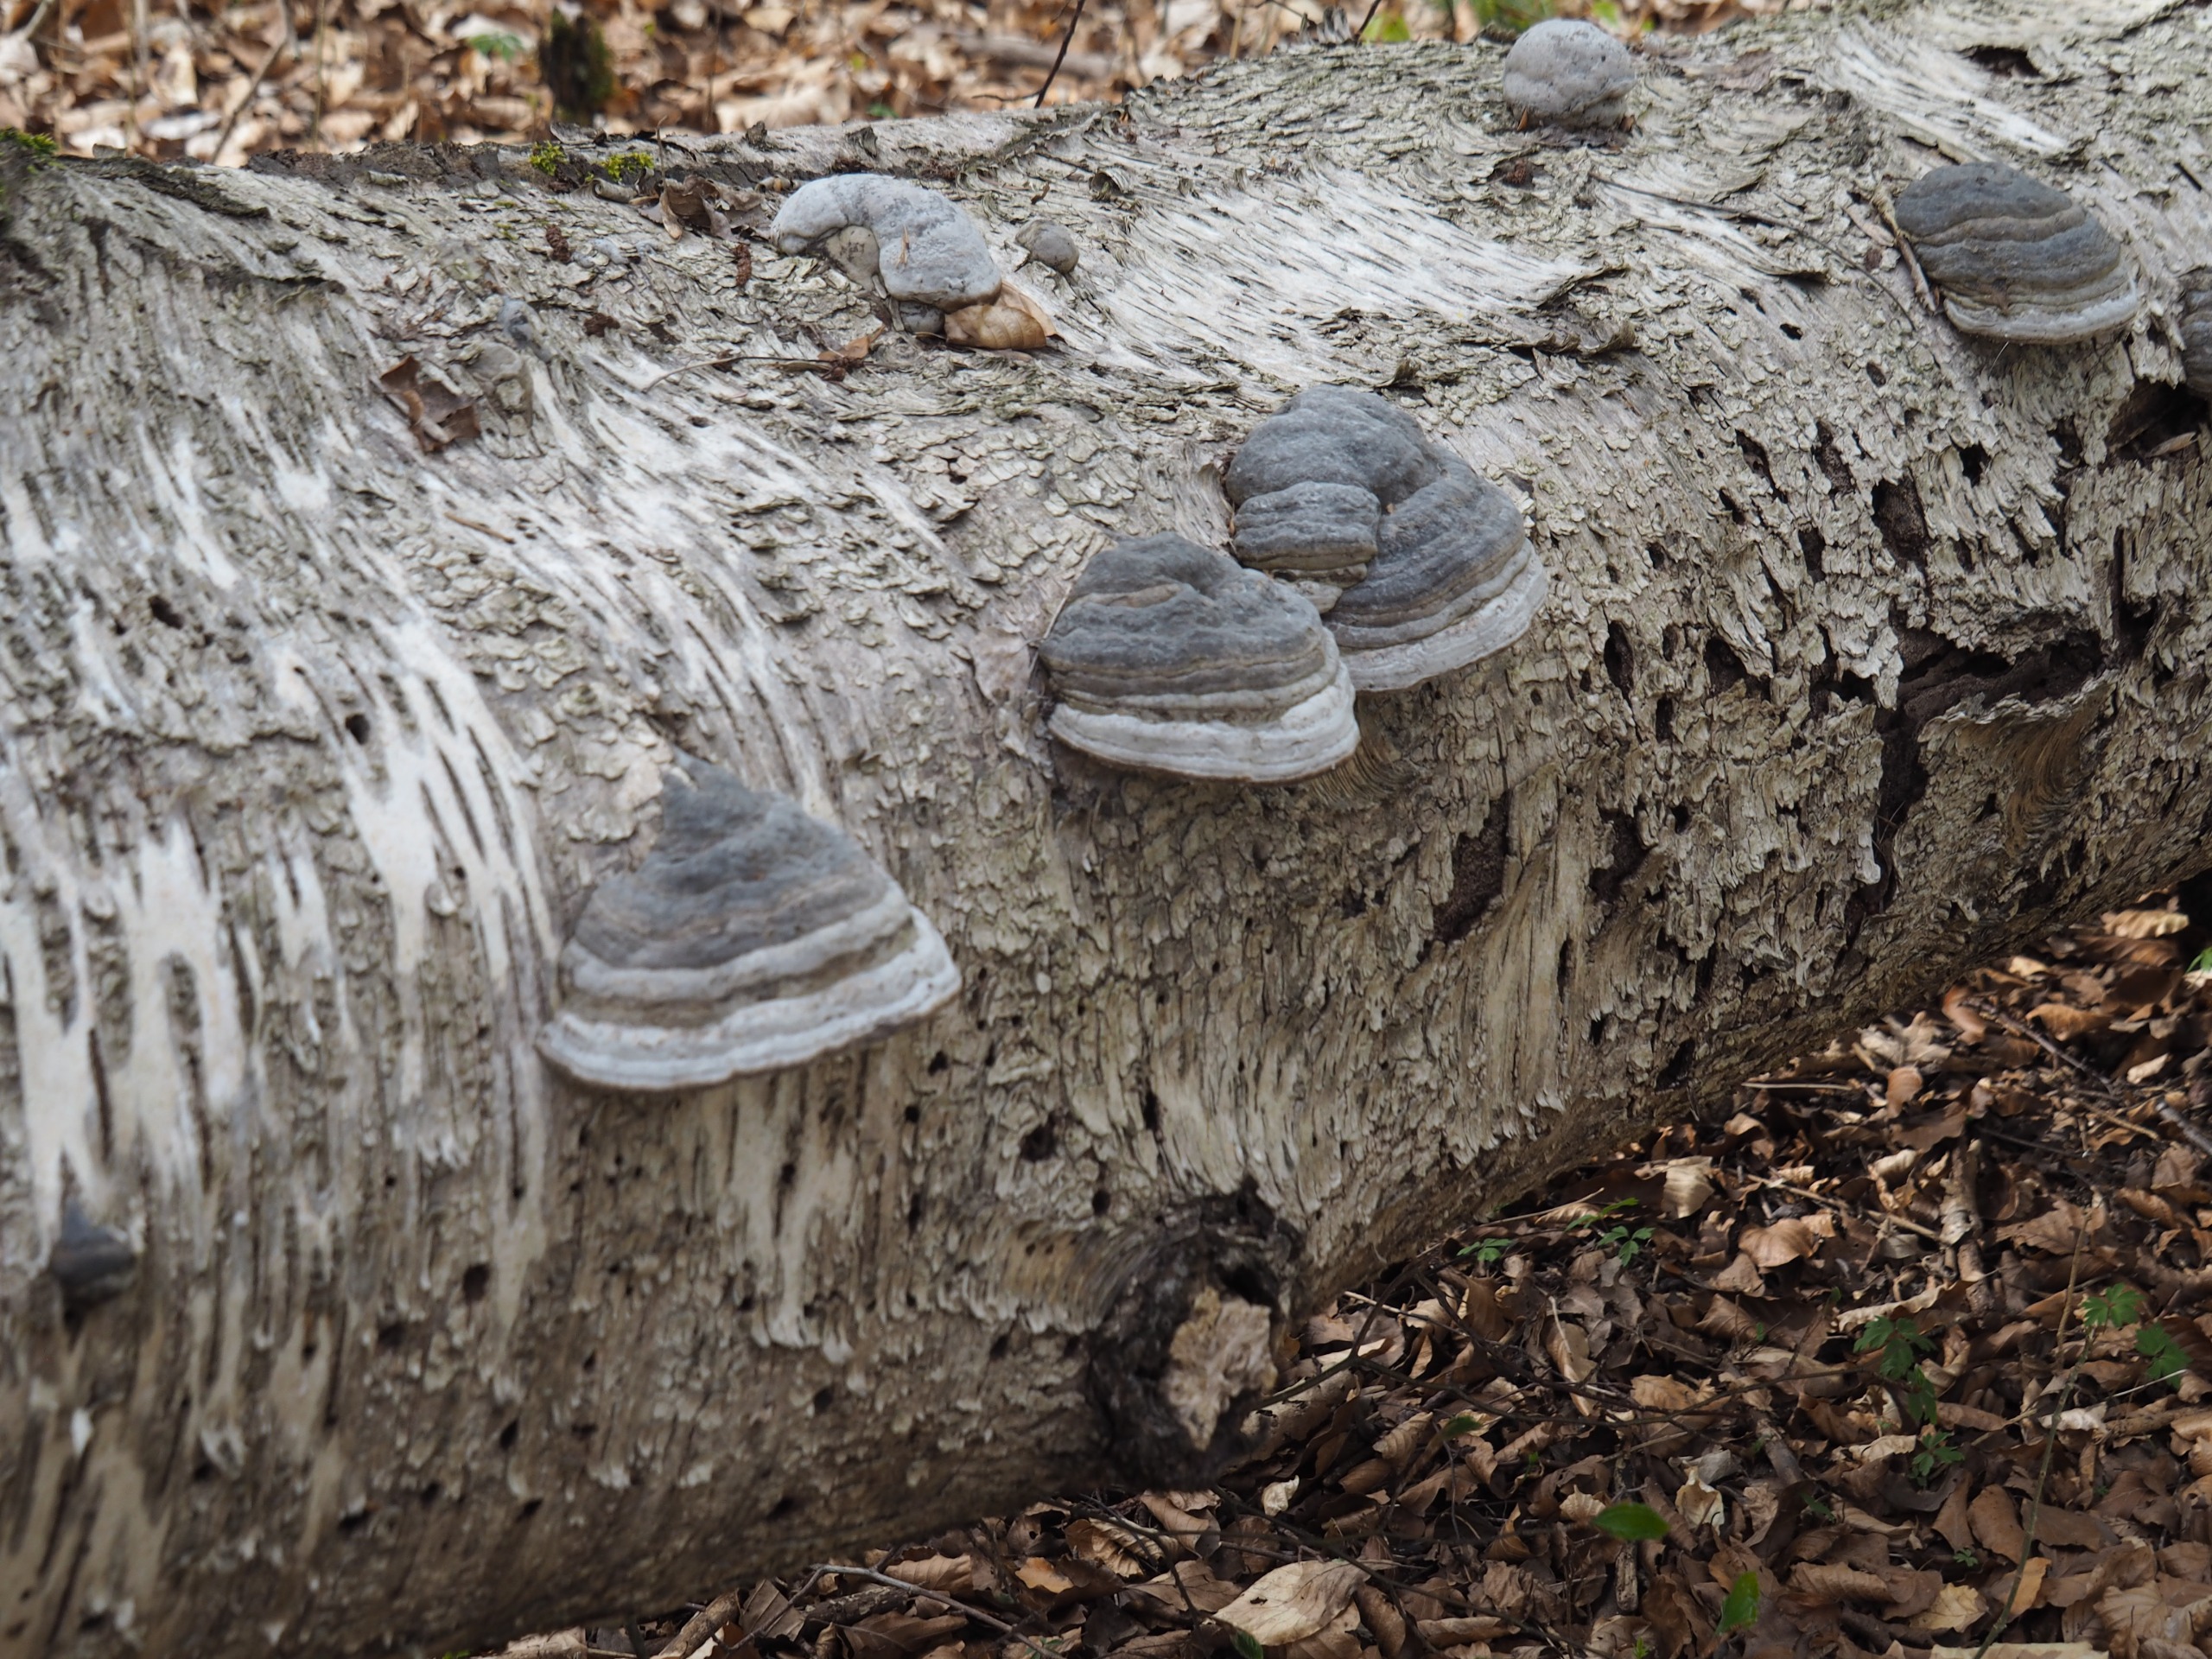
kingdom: Fungi
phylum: Basidiomycota
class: Agaricomycetes
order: Polyporales
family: Polyporaceae
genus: Fomes
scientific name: Fomes fomentarius
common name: Tøndersvamp
